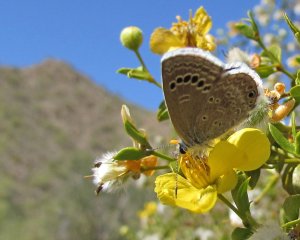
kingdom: Animalia
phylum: Arthropoda
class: Insecta
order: Lepidoptera
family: Lycaenidae
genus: Echinargus
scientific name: Echinargus isola
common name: Reakirt's Blue
